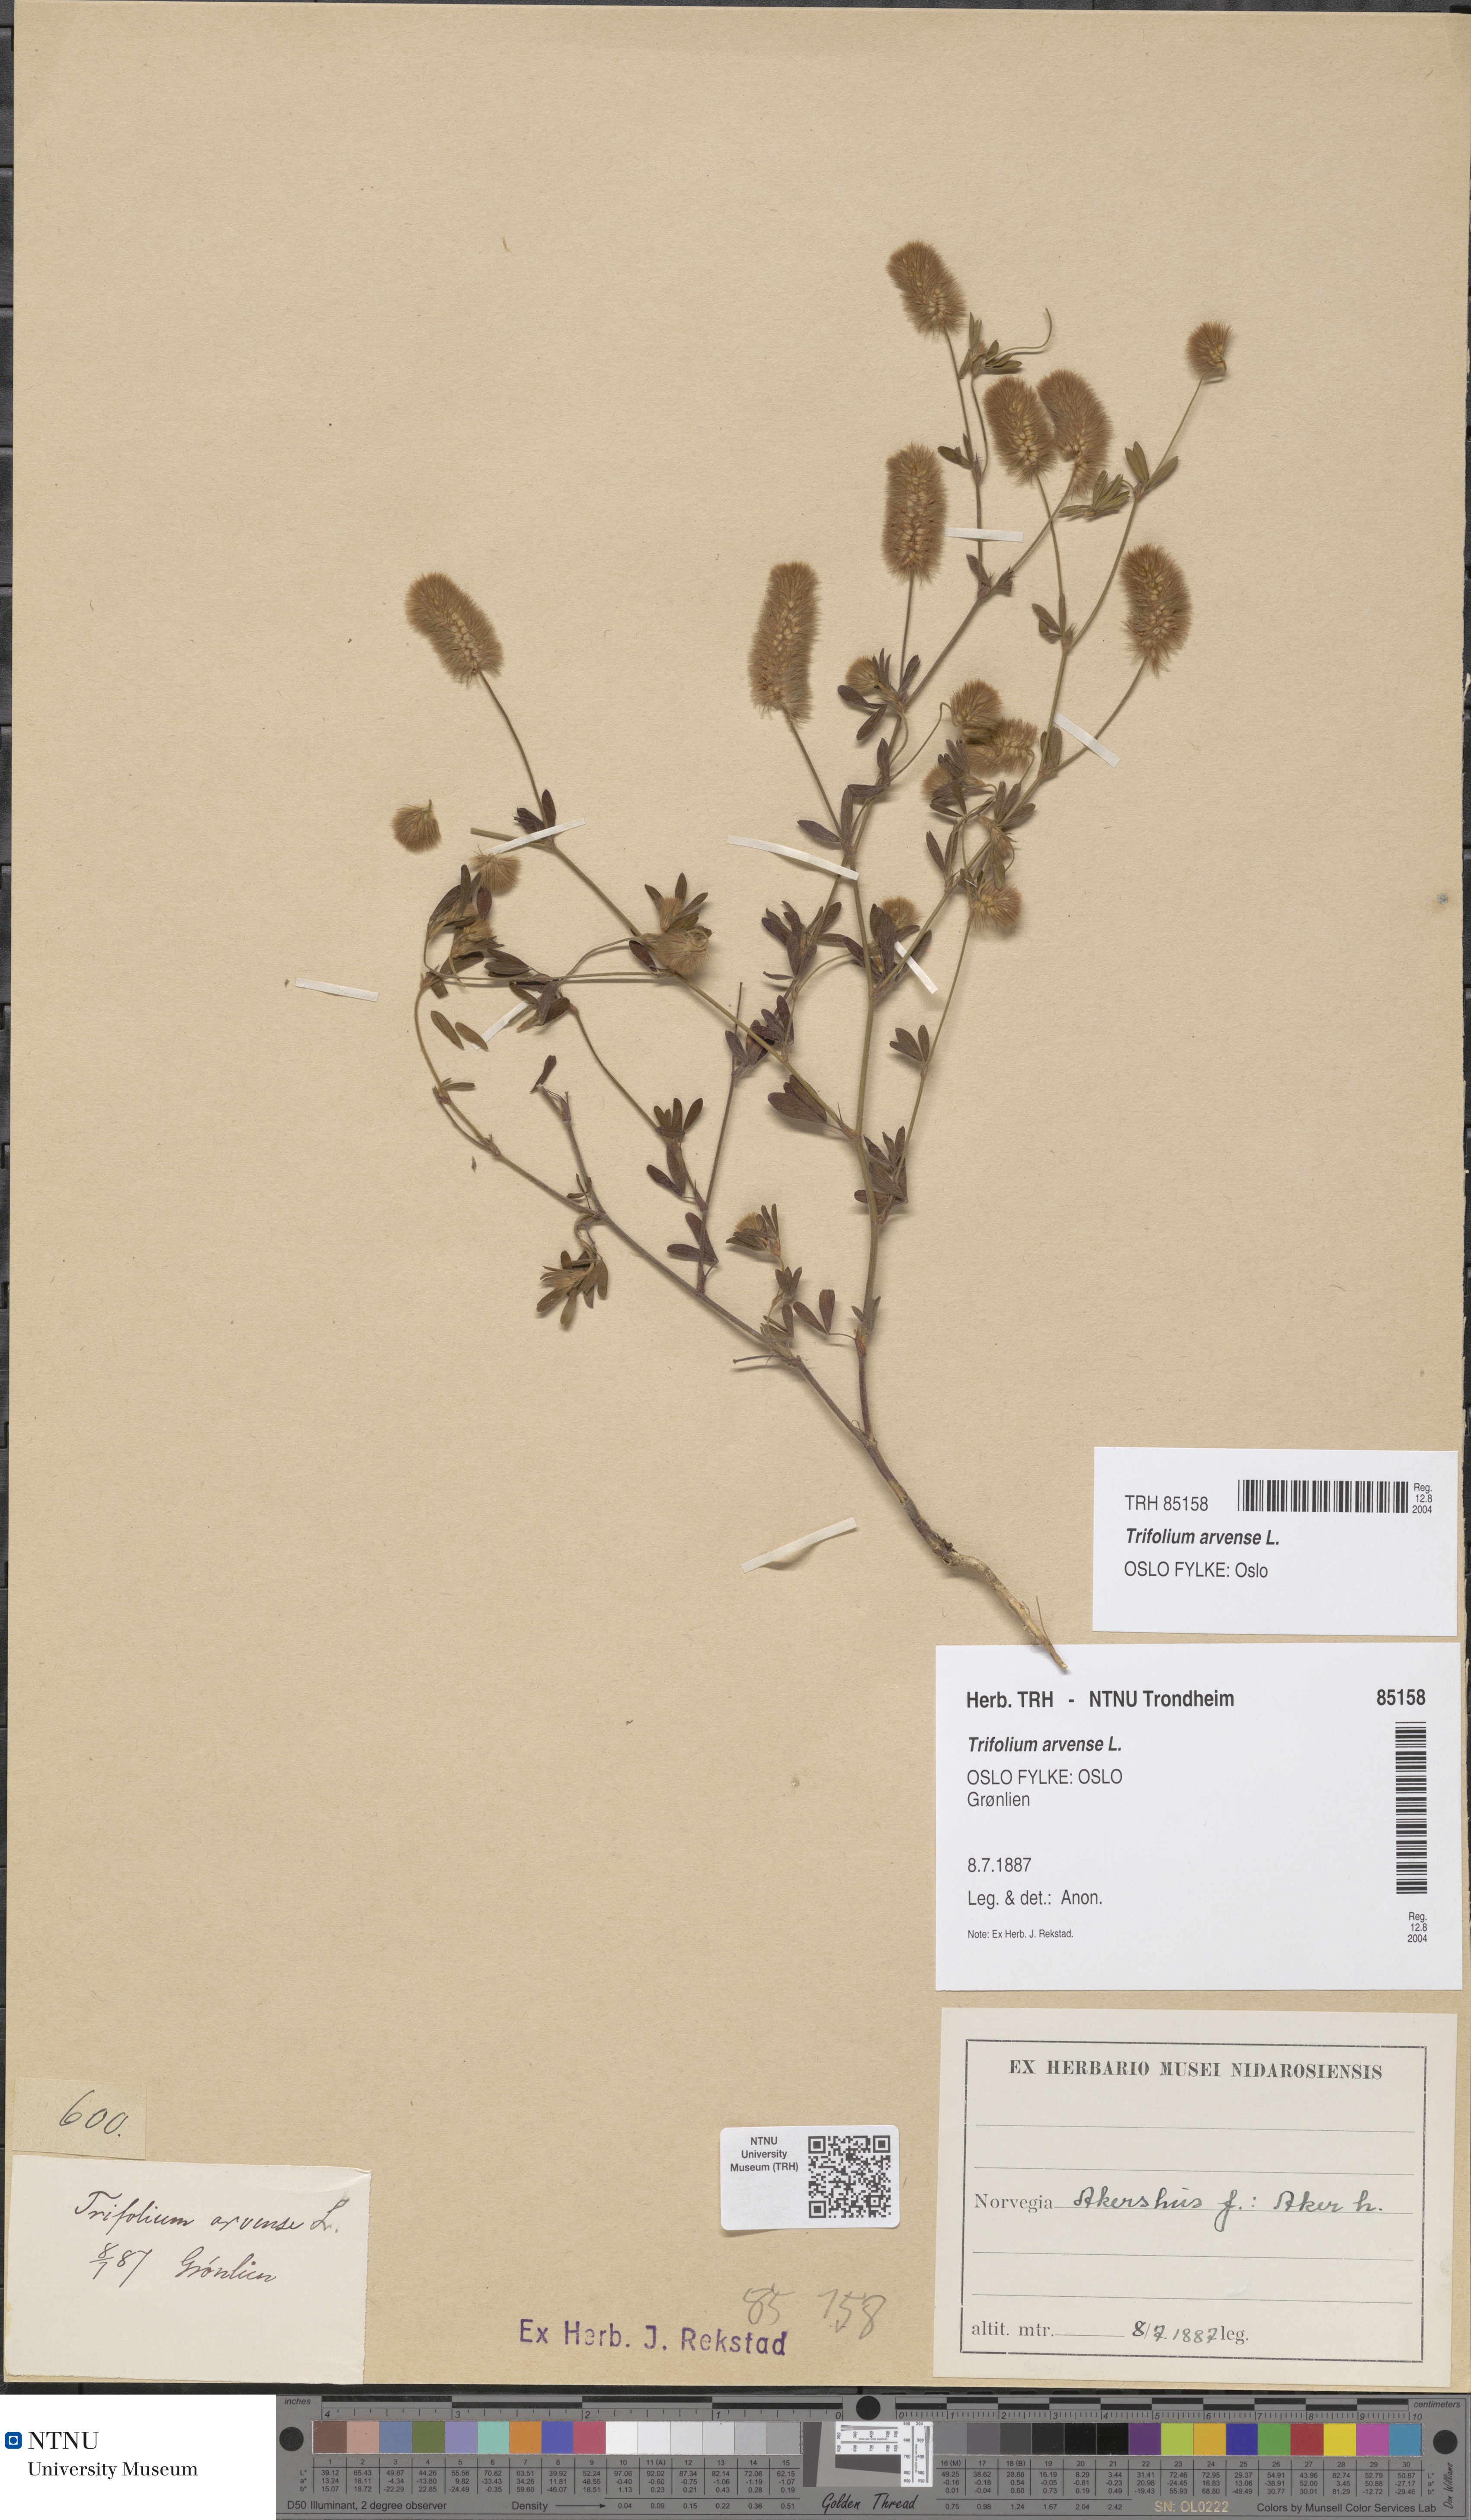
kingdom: Plantae
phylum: Tracheophyta
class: Magnoliopsida
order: Fabales
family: Fabaceae
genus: Trifolium
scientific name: Trifolium arvense
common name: Hare's-foot clover
